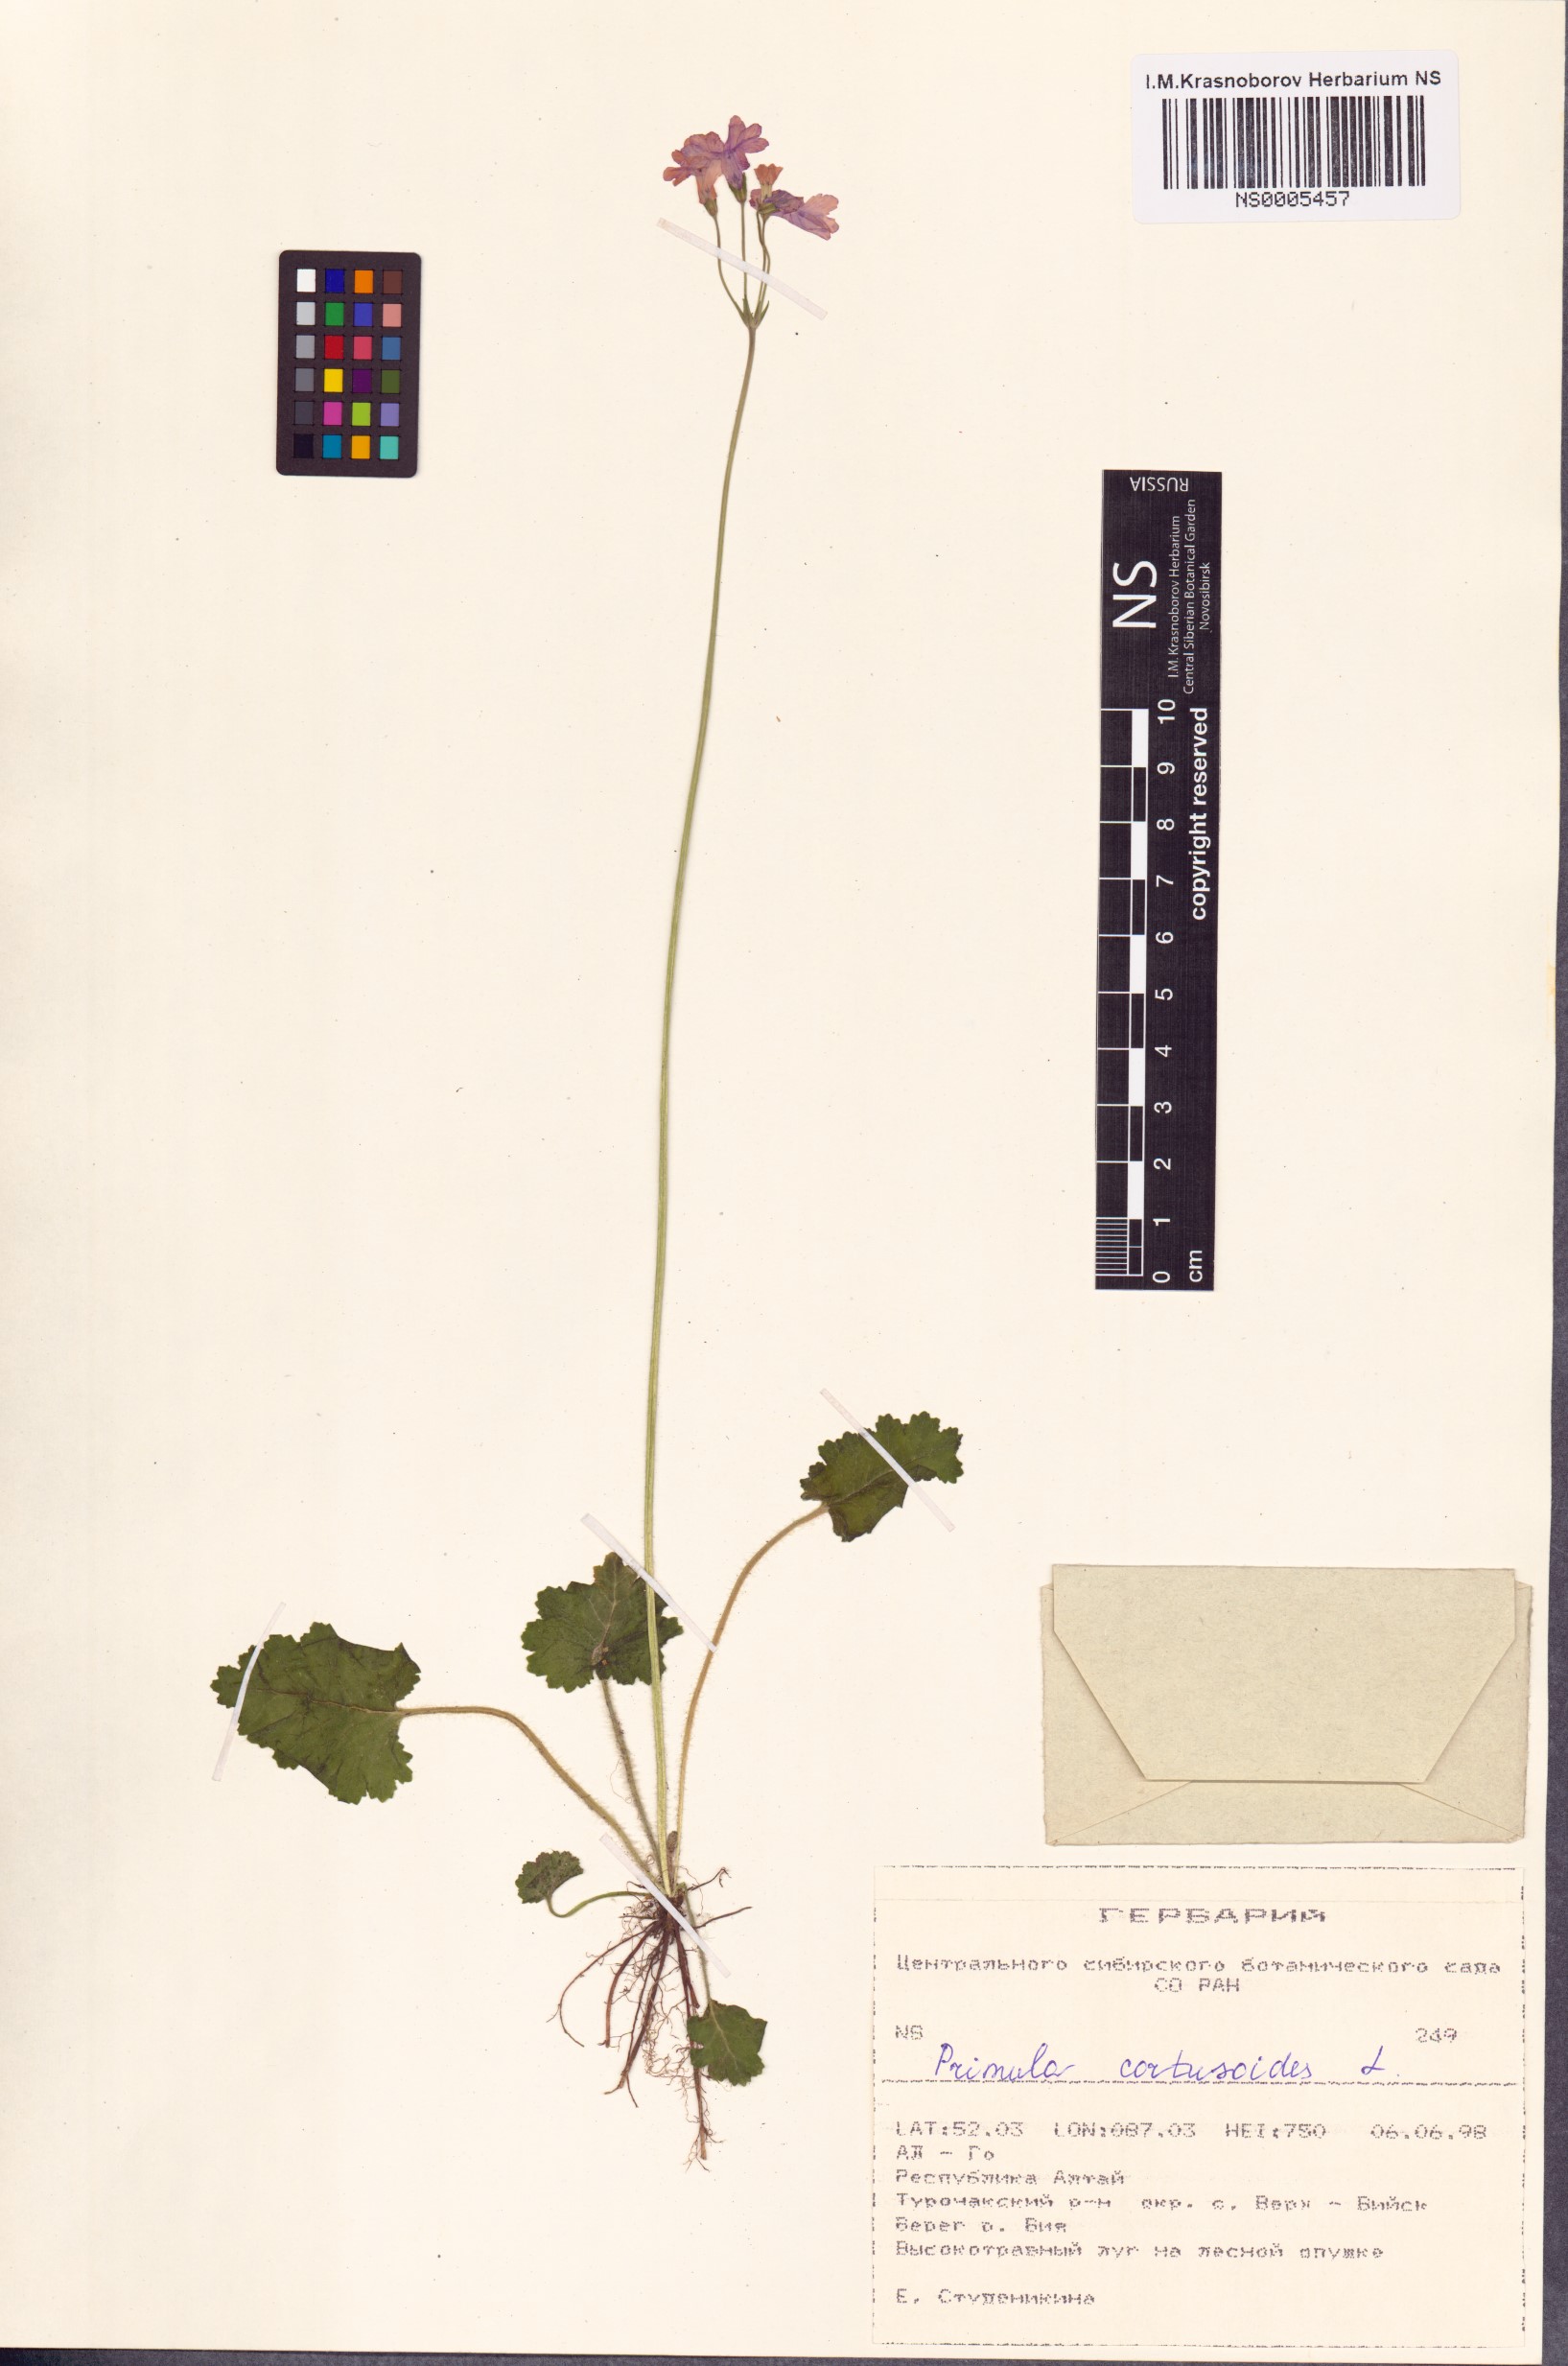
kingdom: Plantae
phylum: Tracheophyta
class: Magnoliopsida
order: Ericales
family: Primulaceae
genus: Primula
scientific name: Primula cortusoides
